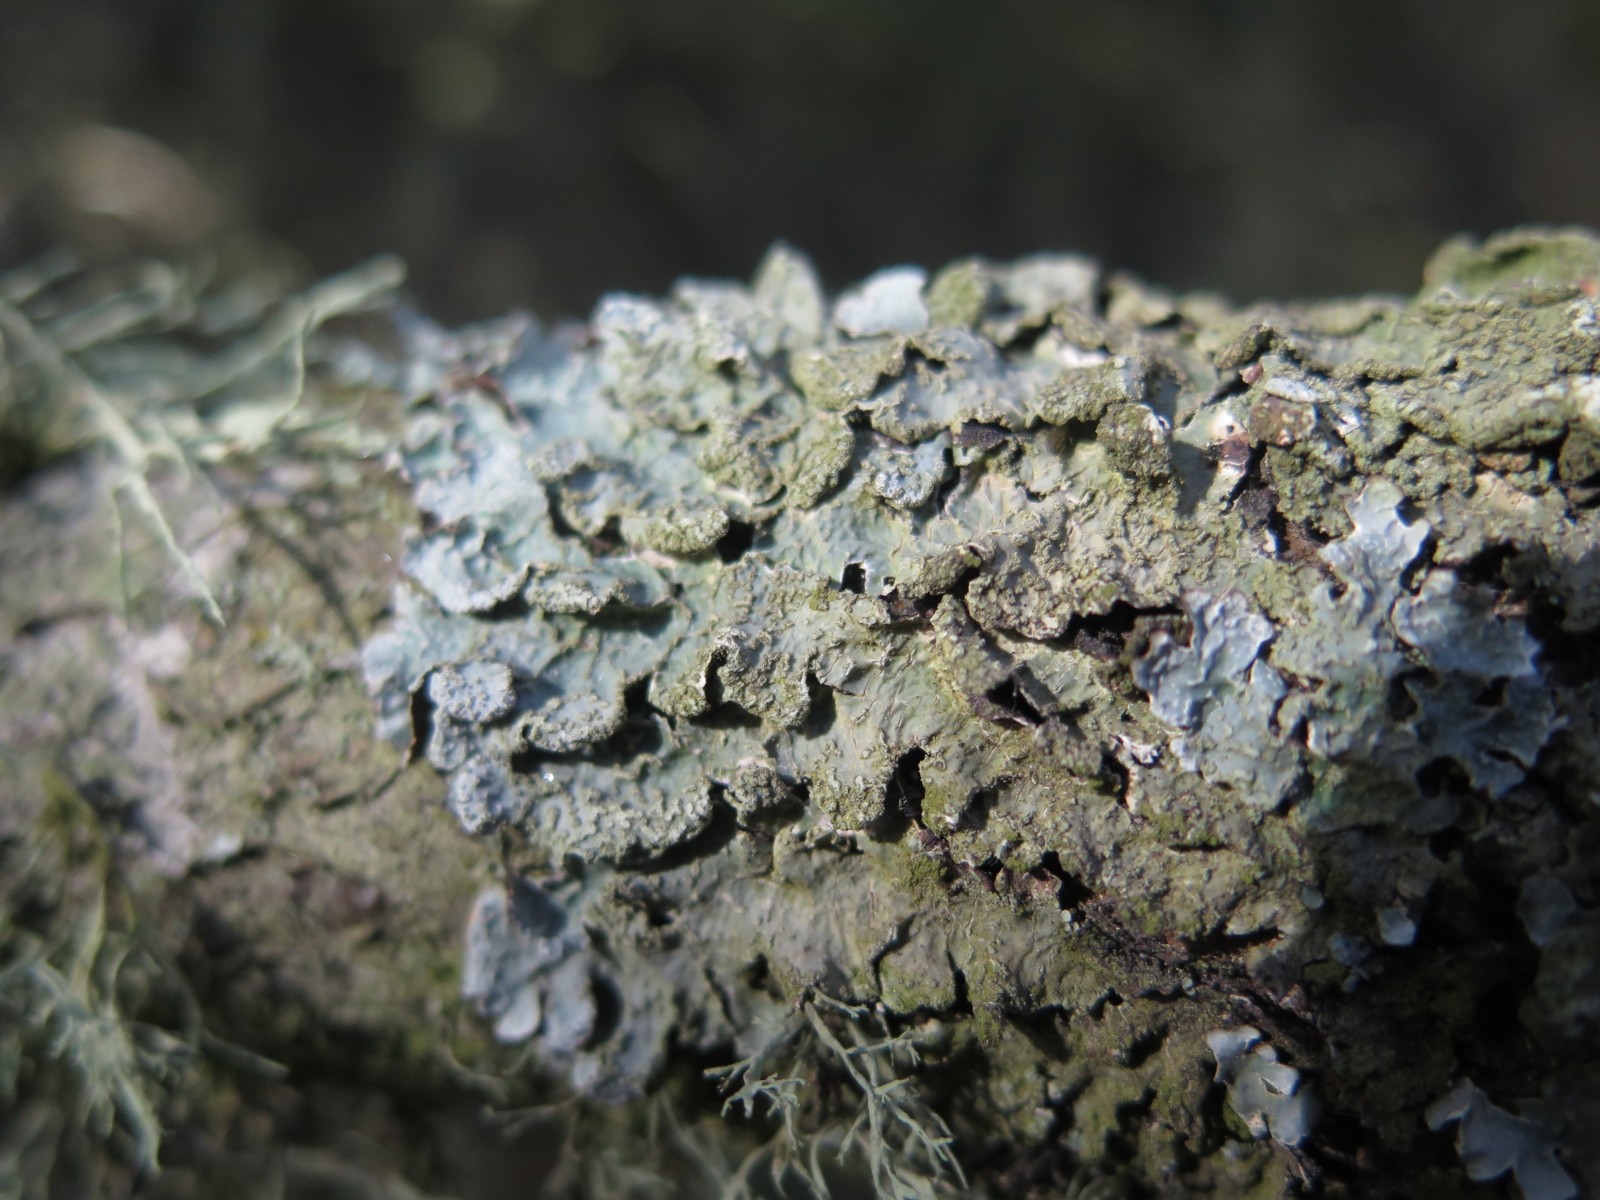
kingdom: Fungi
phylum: Ascomycota
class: Lecanoromycetes
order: Lecanorales
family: Parmeliaceae
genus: Parmelia
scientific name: Parmelia sulcata
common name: rynket skållav
